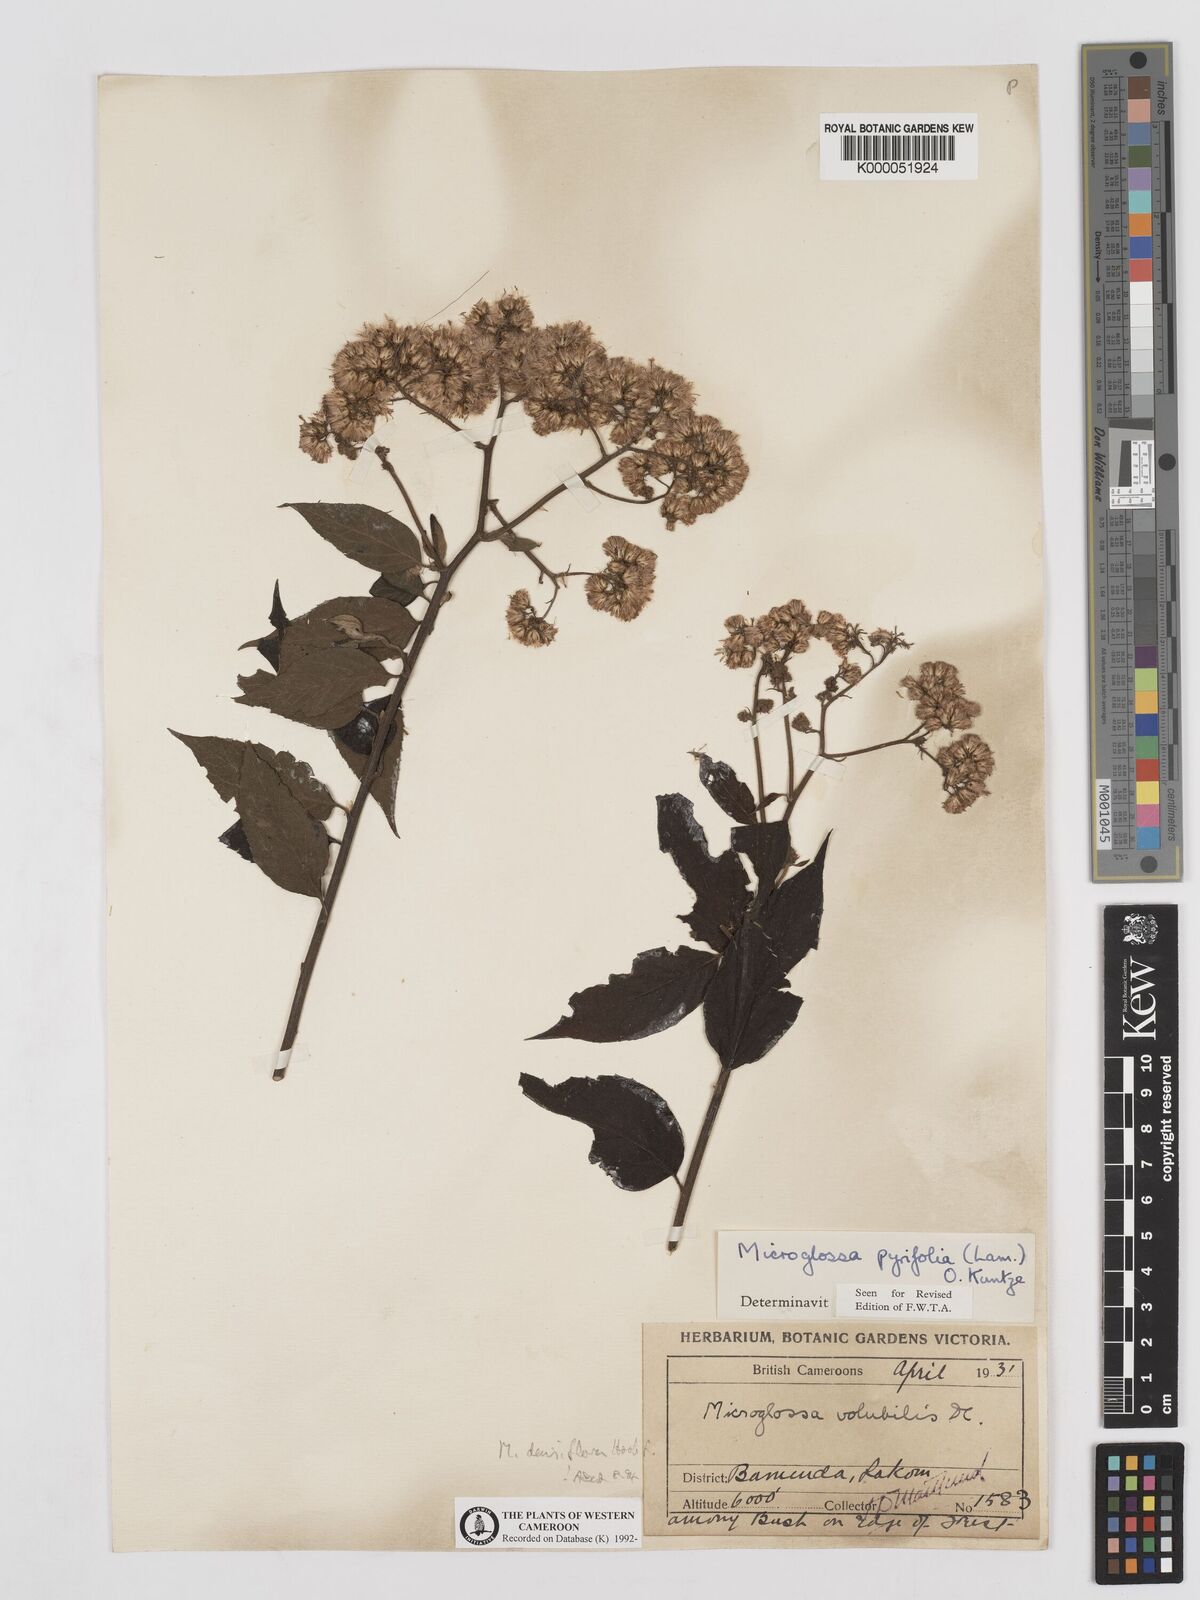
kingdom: Plantae
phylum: Tracheophyta
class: Magnoliopsida
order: Asterales
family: Asteraceae
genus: Microglossa
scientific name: Microglossa densiflora
